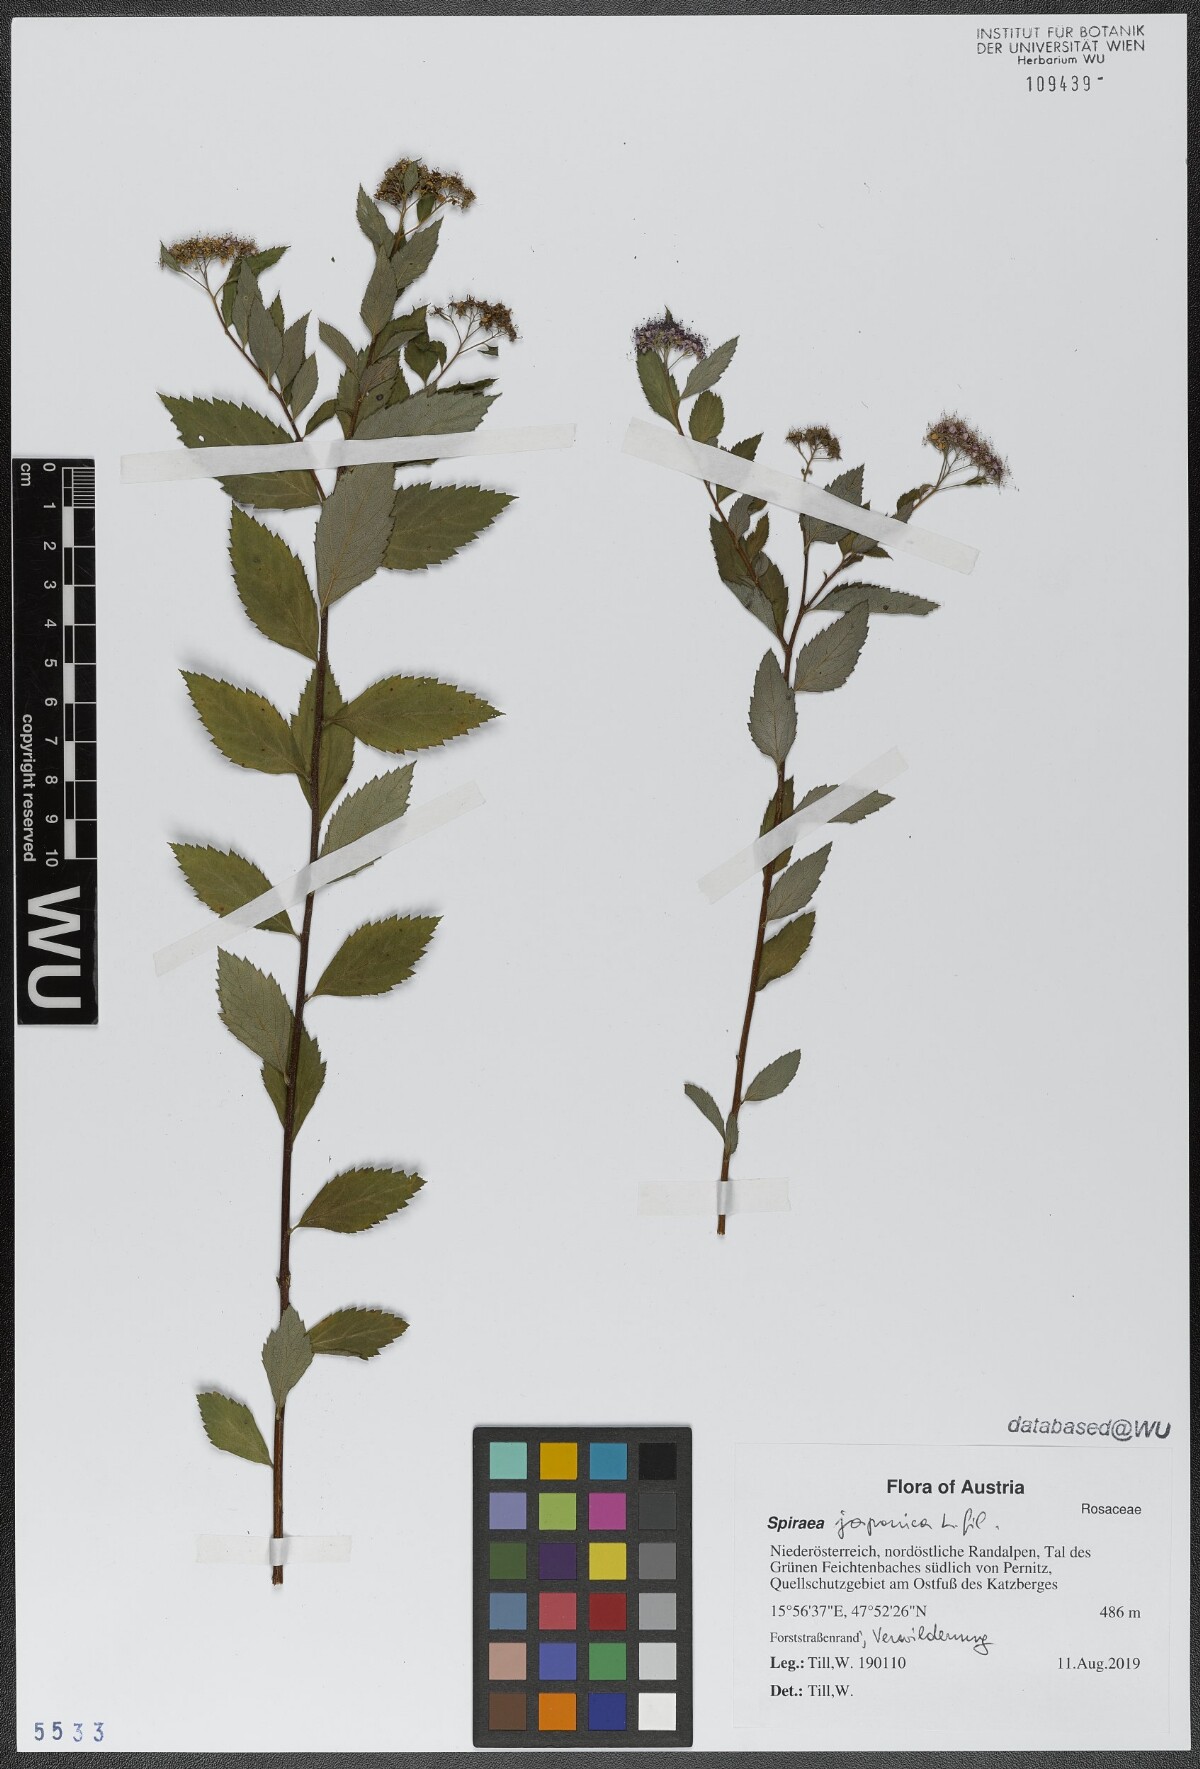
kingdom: Plantae
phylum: Tracheophyta
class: Magnoliopsida
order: Rosales
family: Rosaceae
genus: Spiraea
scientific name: Spiraea japonica
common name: Japanese spiraea
